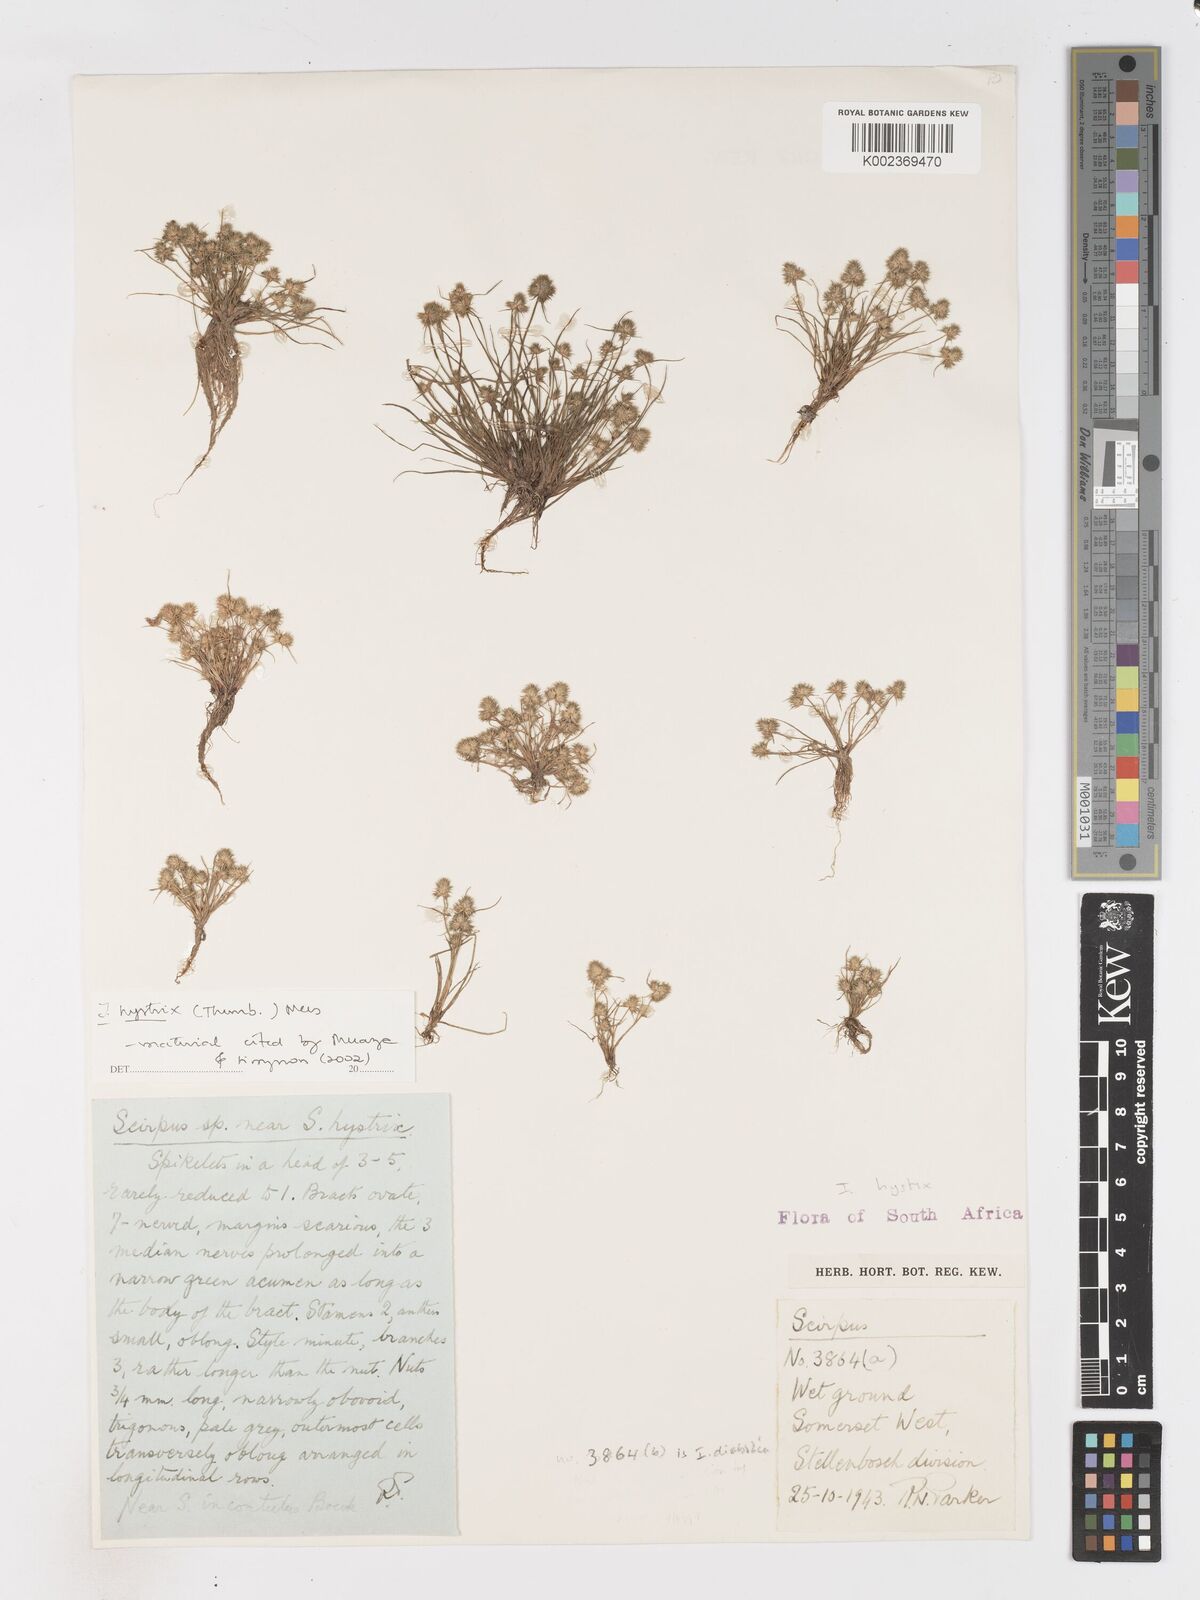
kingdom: Plantae
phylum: Tracheophyta
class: Liliopsida
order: Poales
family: Cyperaceae
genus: Isolepis
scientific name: Isolepis hystrix
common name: Bottlebrush bulrush
